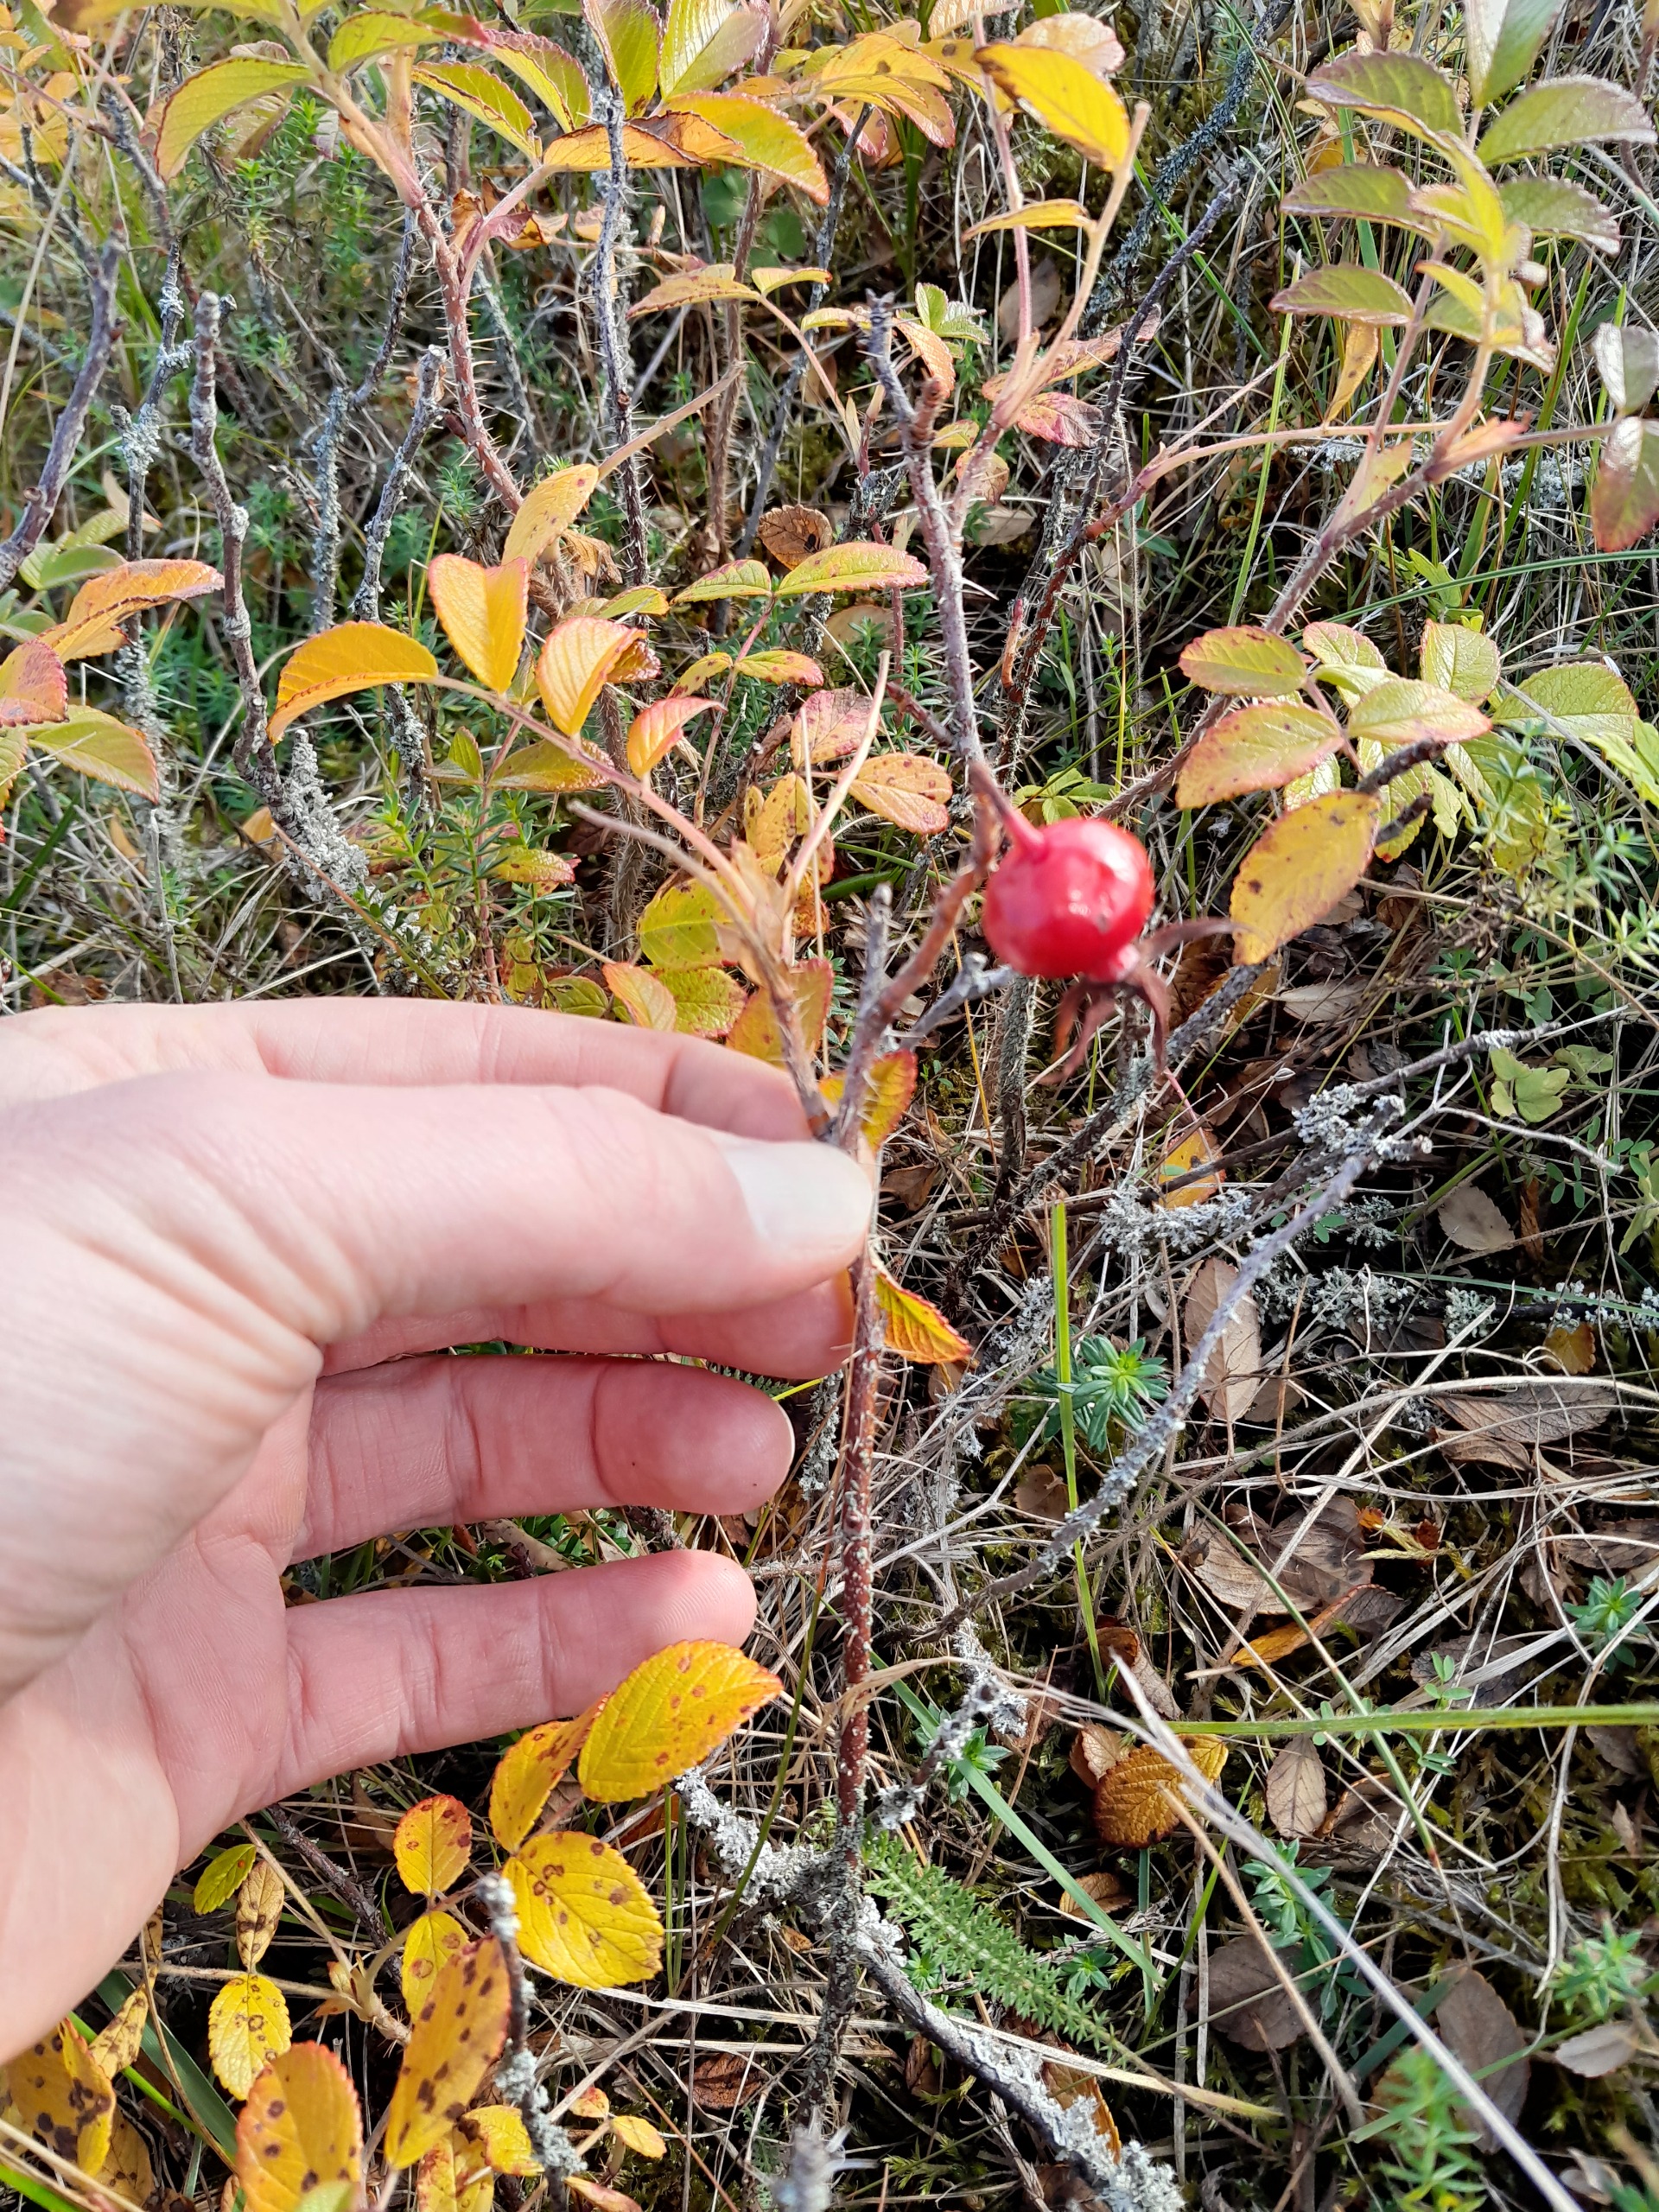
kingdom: Plantae
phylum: Tracheophyta
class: Magnoliopsida
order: Rosales
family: Rosaceae
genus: Rosa
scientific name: Rosa rugosa
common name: Rynket rose
